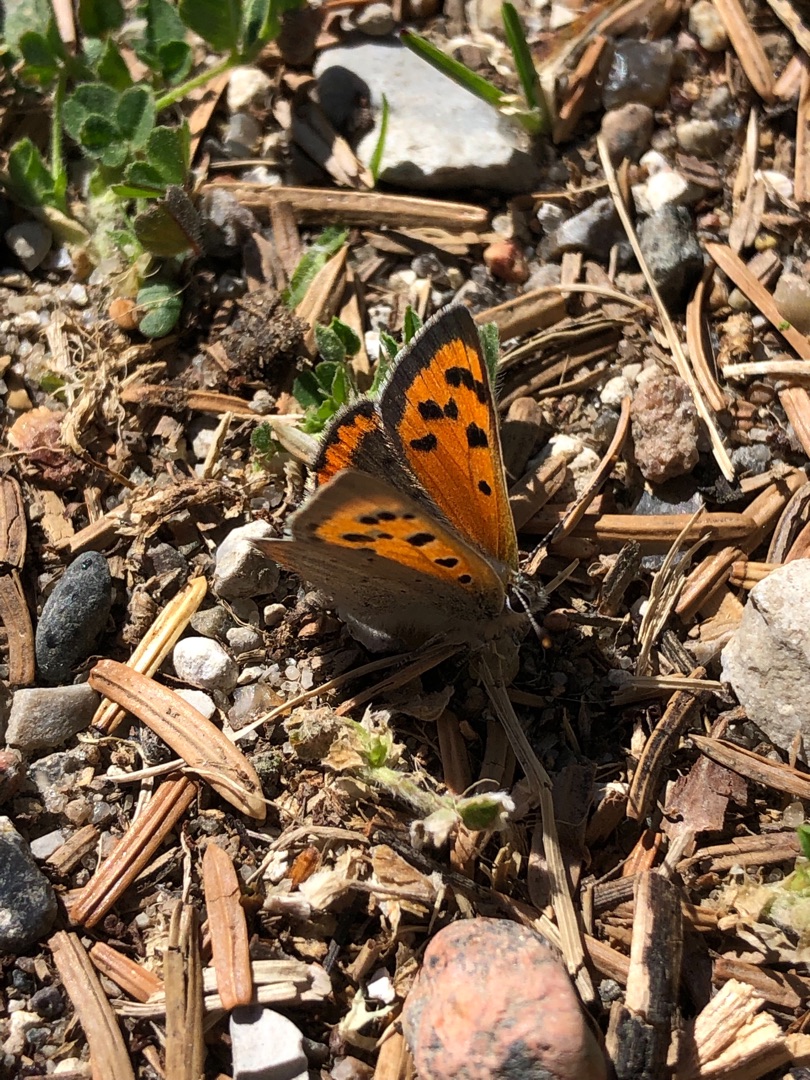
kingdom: Animalia
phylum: Arthropoda
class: Insecta
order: Lepidoptera
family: Lycaenidae
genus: Lycaena
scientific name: Lycaena phlaeas
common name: Lille ildfugl
